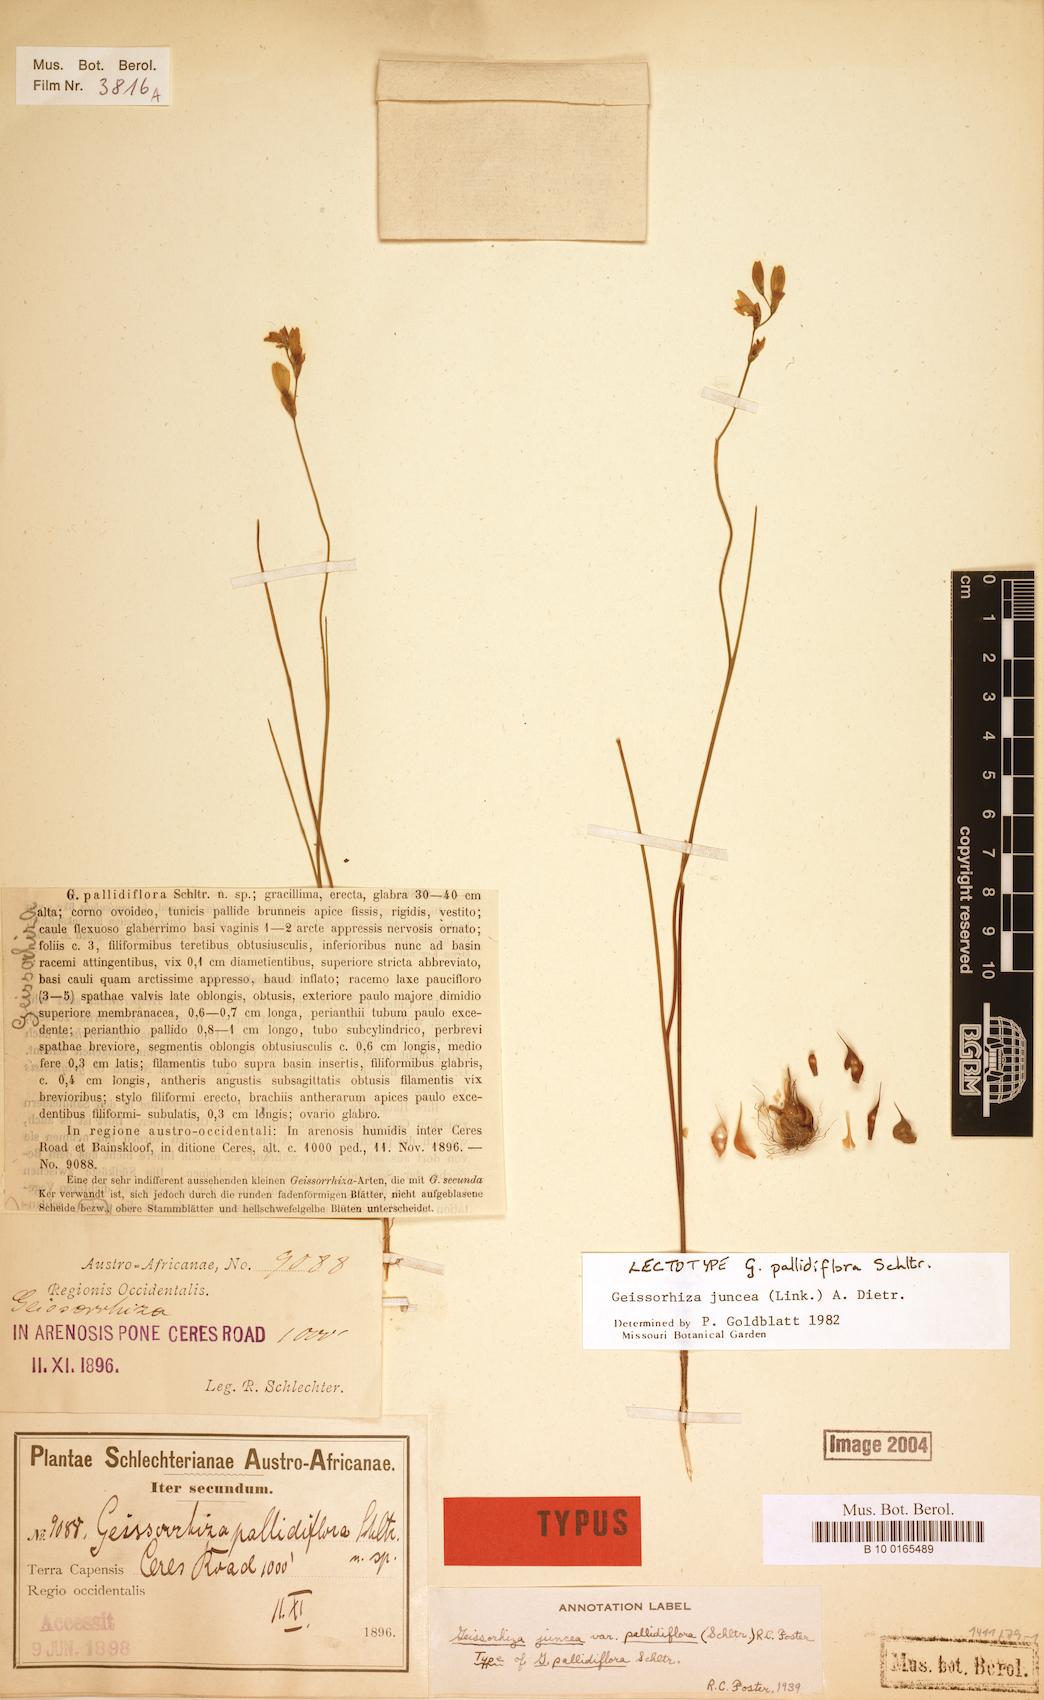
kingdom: Plantae
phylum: Tracheophyta
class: Liliopsida
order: Asparagales
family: Iridaceae
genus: Geissorhiza
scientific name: Geissorhiza juncea
